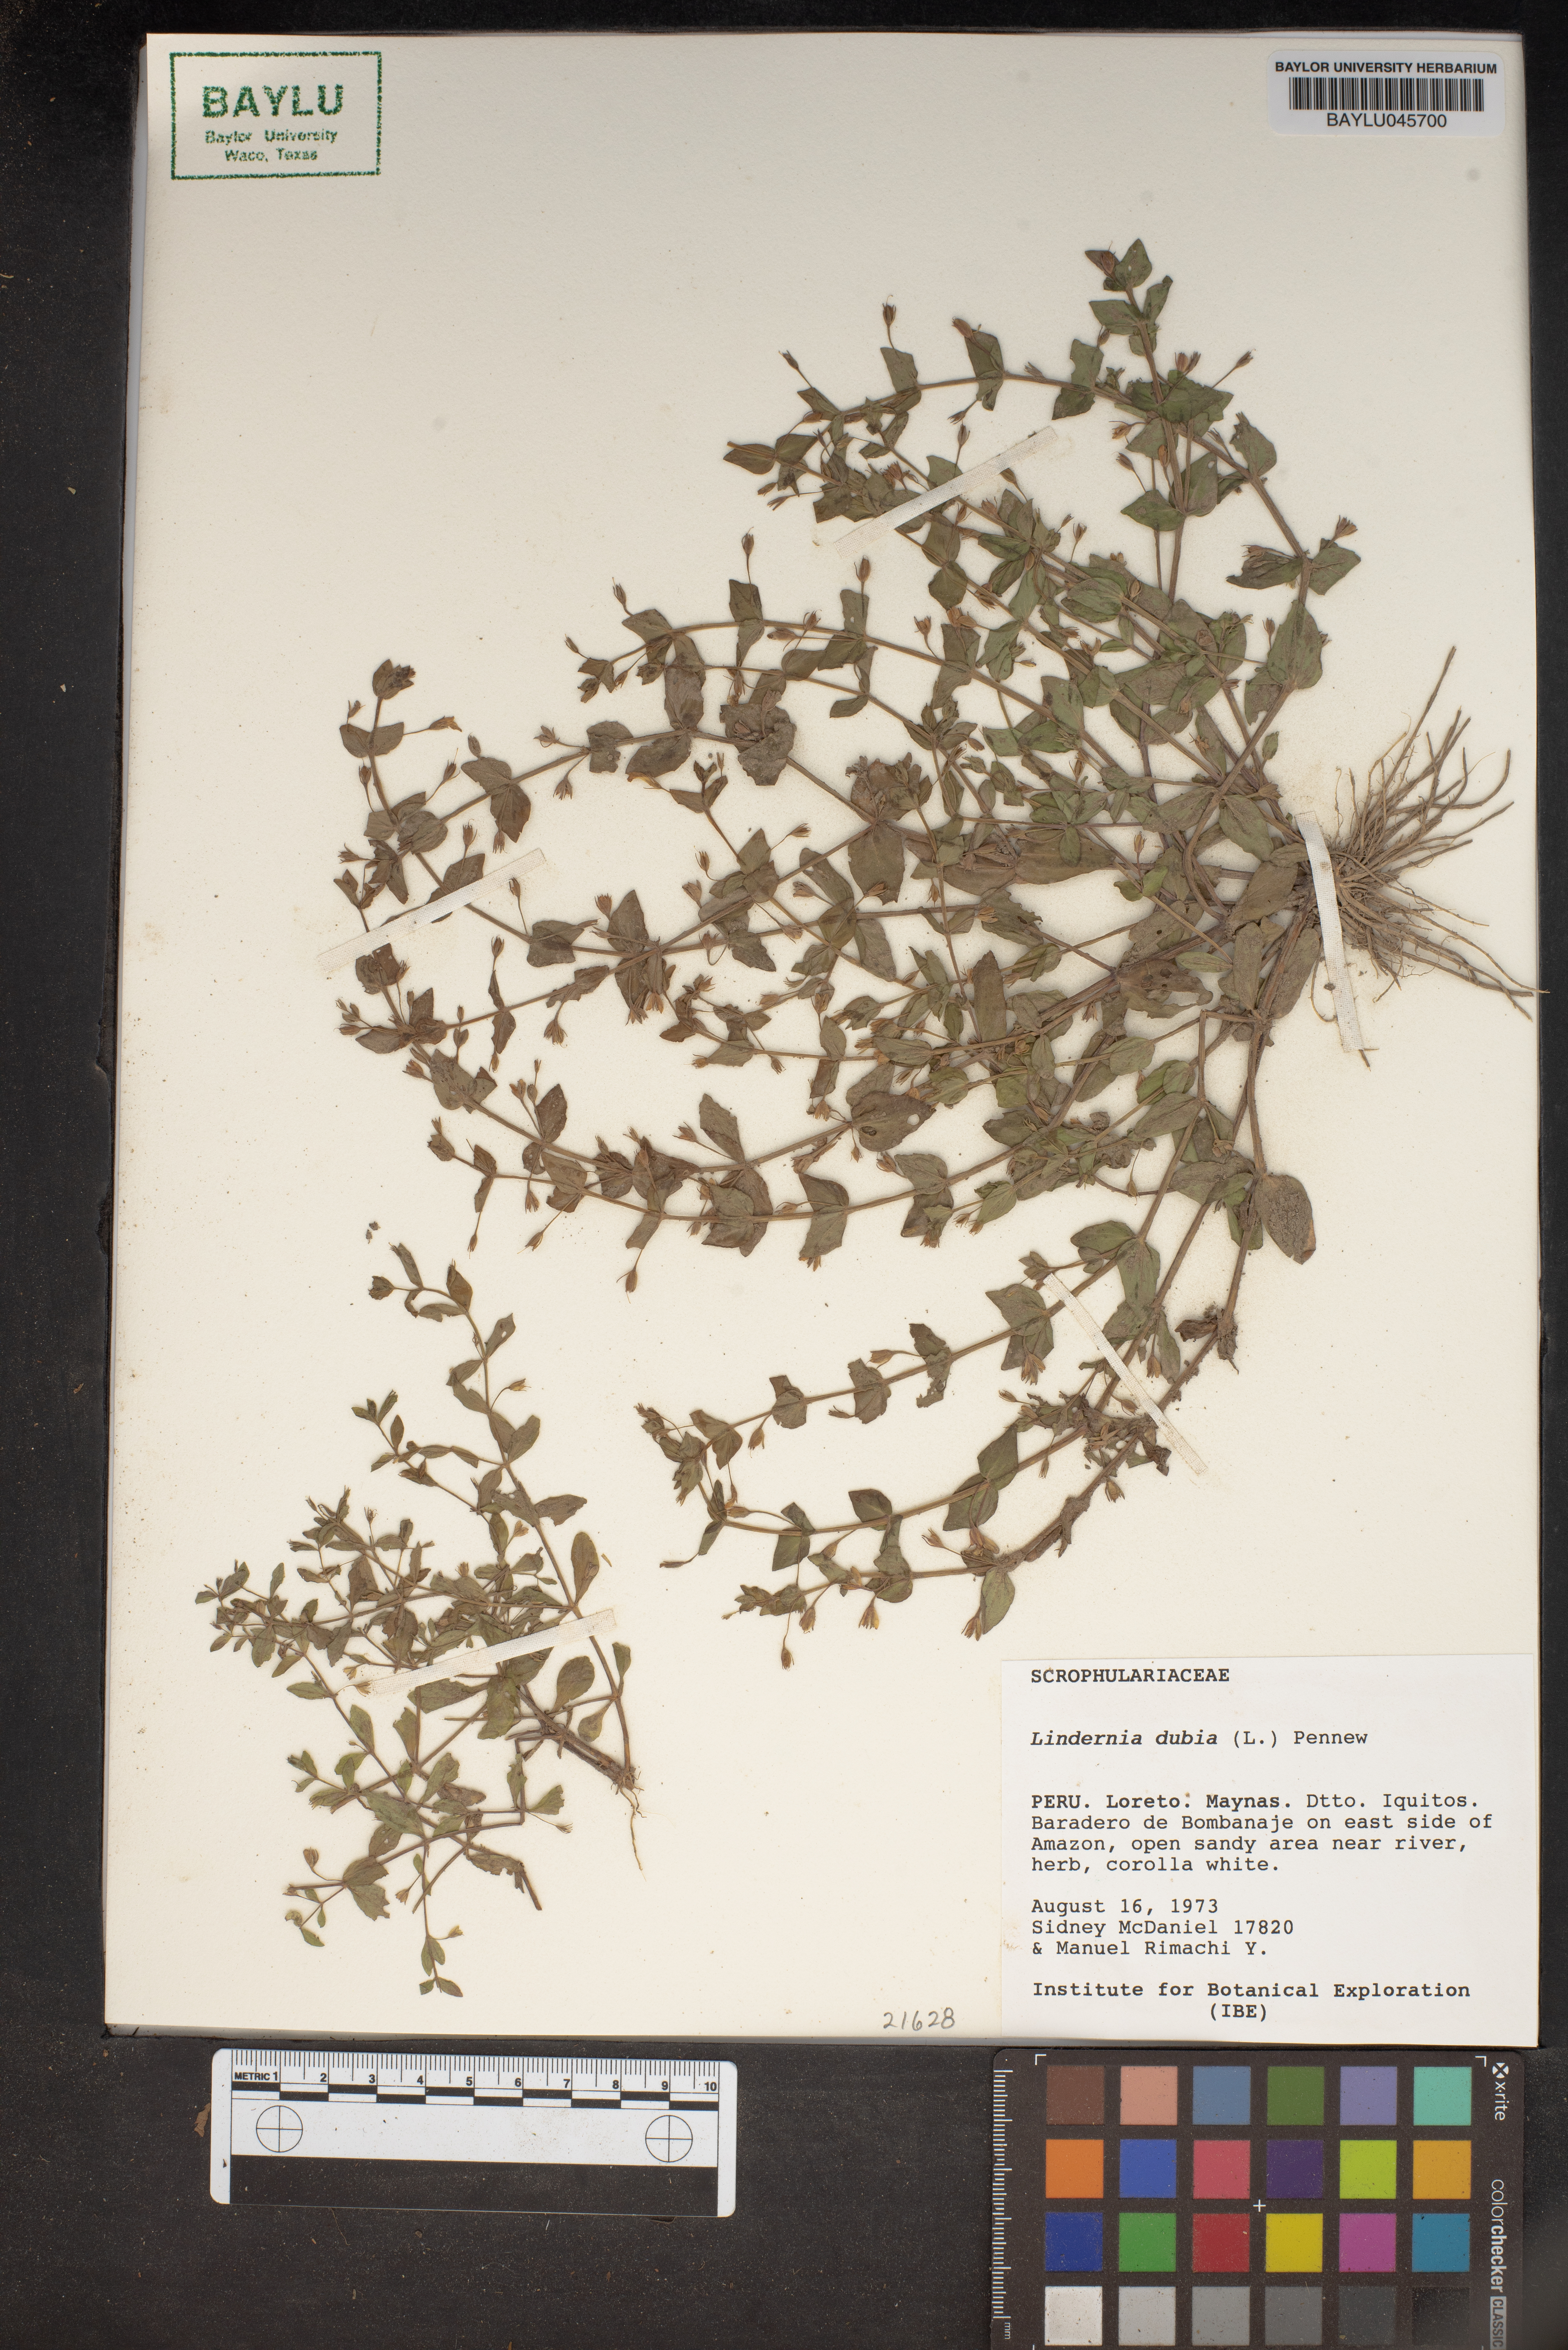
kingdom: Plantae
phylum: Tracheophyta
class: Magnoliopsida
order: Lamiales
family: Linderniaceae
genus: Lindernia
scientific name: Lindernia dubia
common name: Annual false pimpernel
